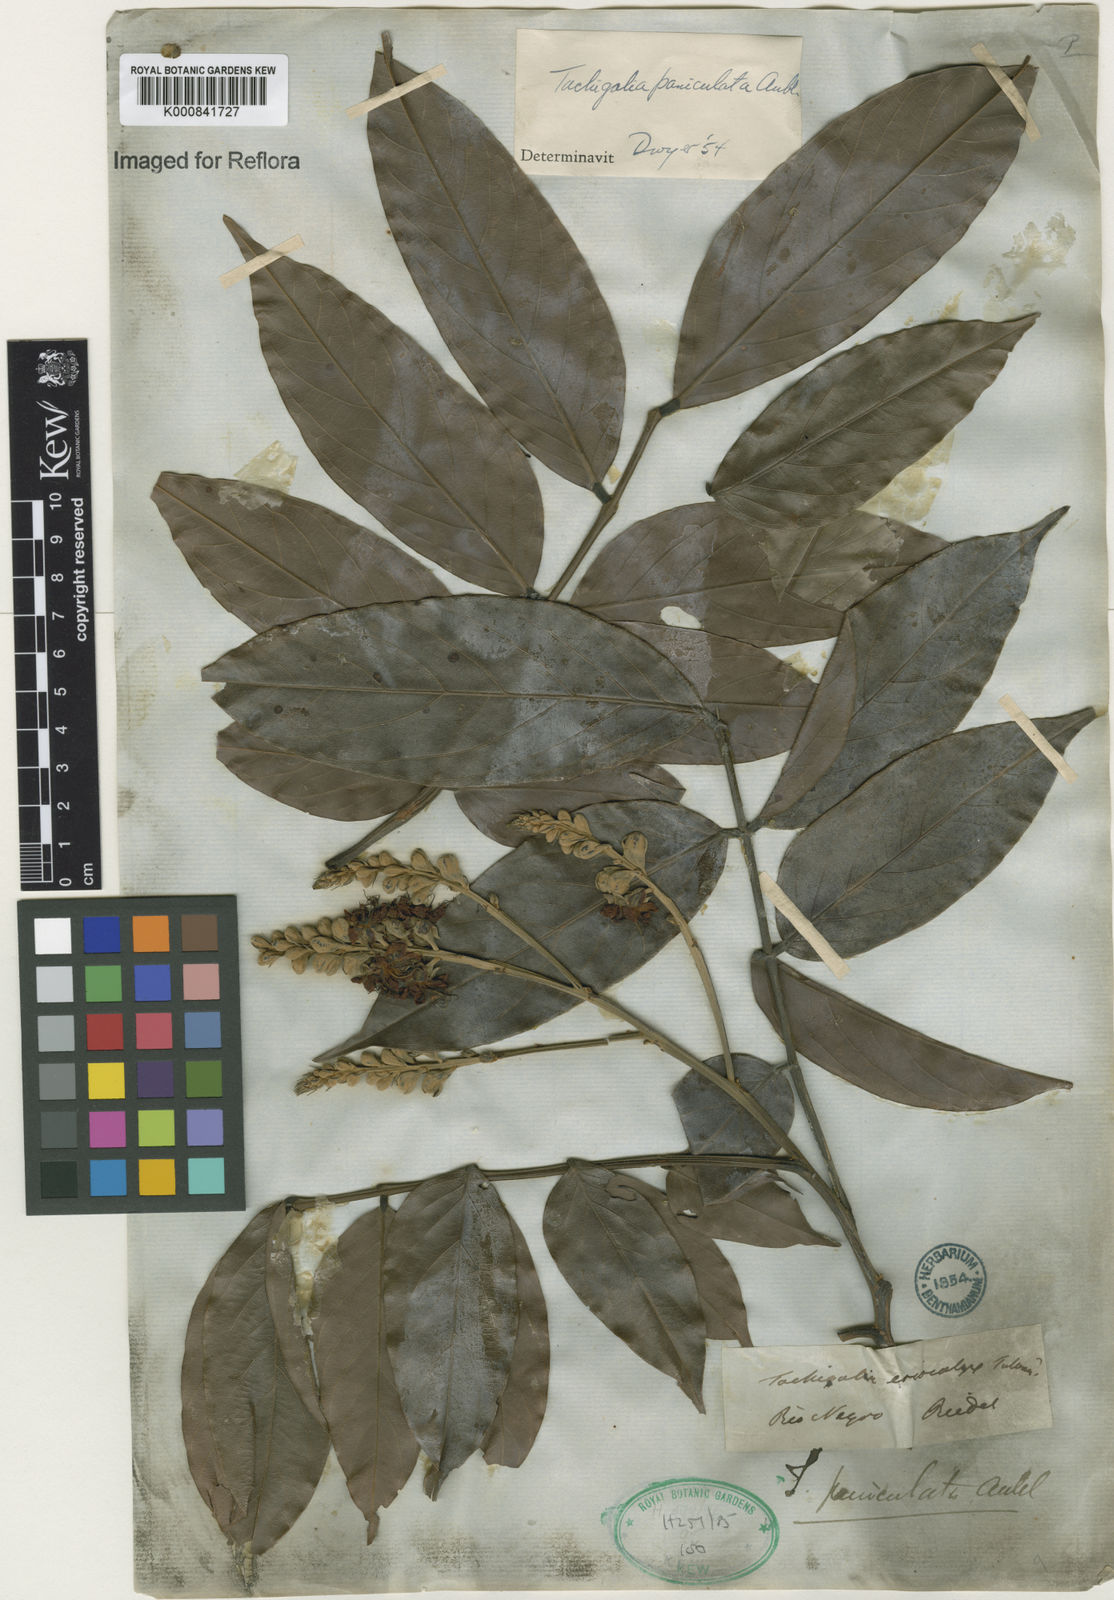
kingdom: Plantae
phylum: Tracheophyta
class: Magnoliopsida
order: Fabales
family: Fabaceae
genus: Tachigali
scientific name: Tachigali paniculata
